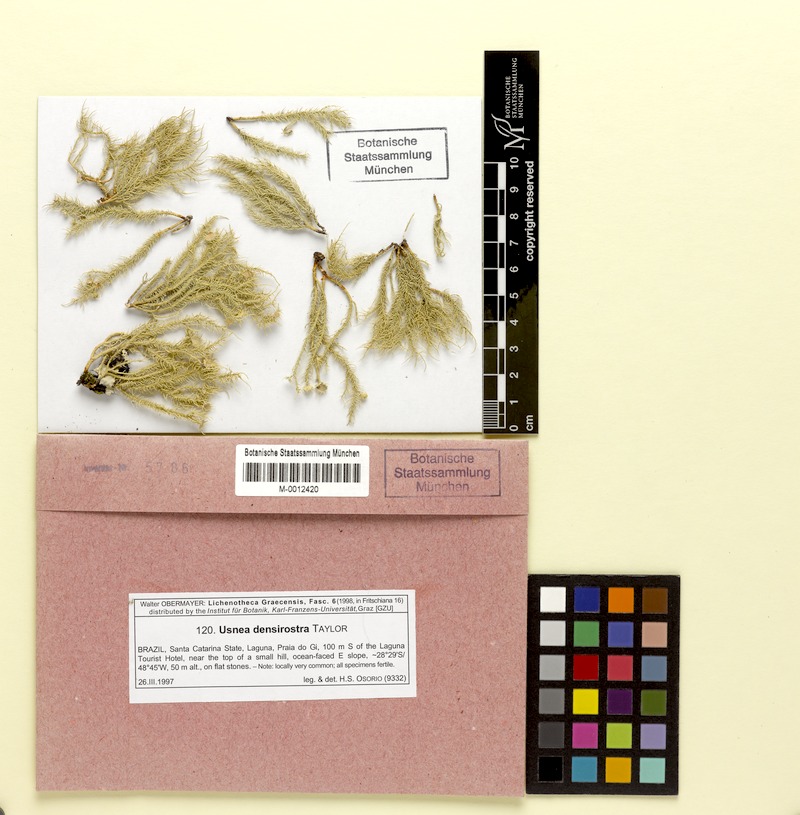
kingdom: Fungi
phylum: Ascomycota
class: Lecanoromycetes
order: Lecanorales
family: Parmeliaceae
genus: Usnea
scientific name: Usnea densirostra
